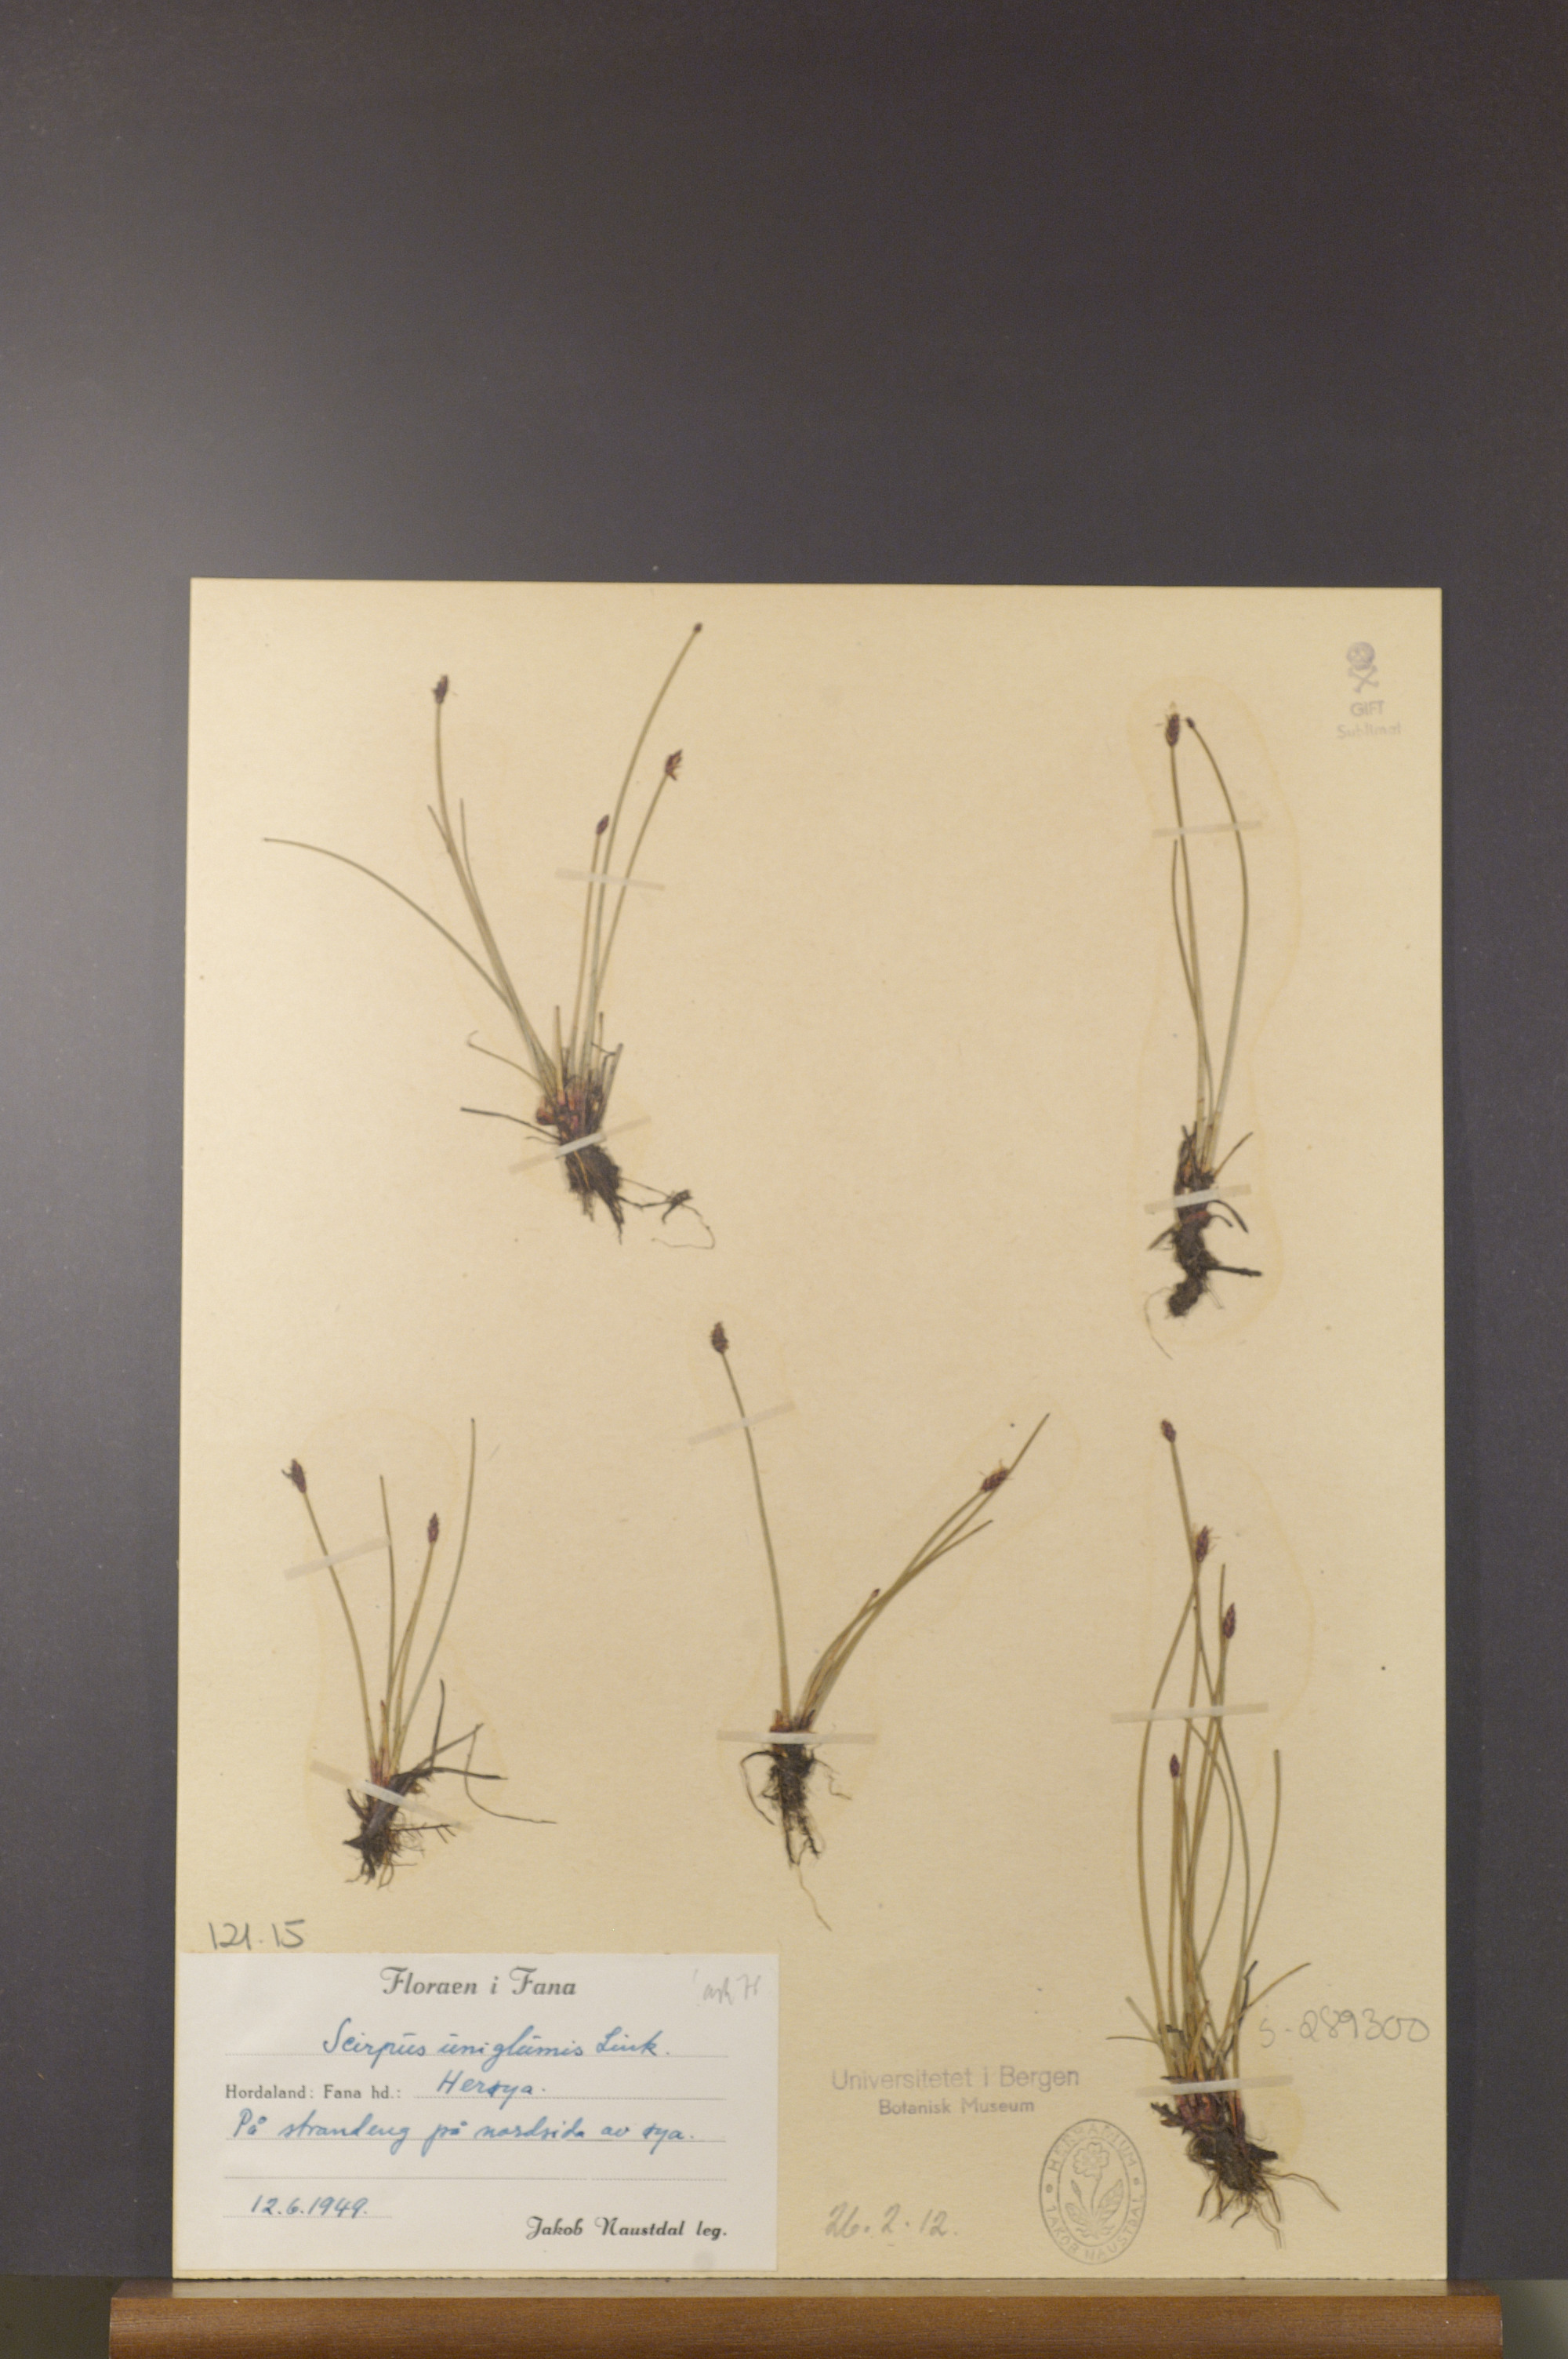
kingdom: Plantae
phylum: Tracheophyta
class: Liliopsida
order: Poales
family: Cyperaceae
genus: Eleocharis
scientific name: Eleocharis uniglumis
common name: Slender spike-rush
